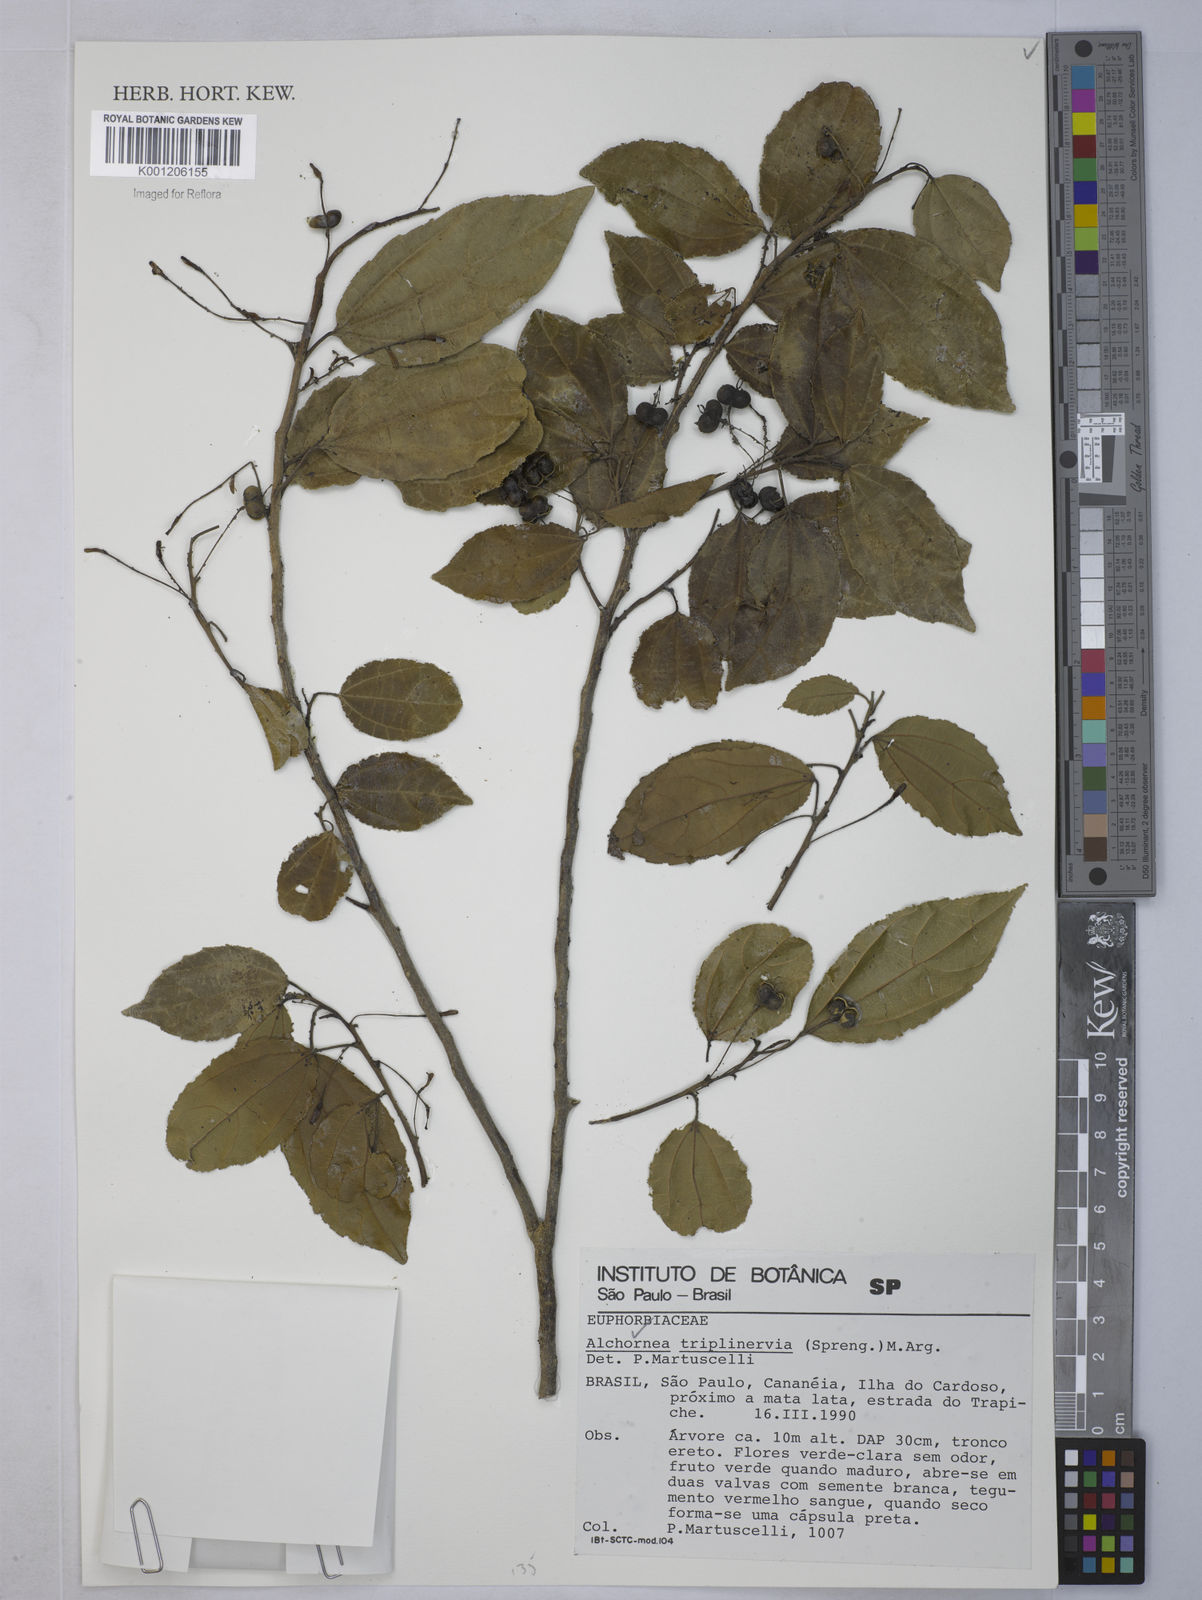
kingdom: Plantae
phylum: Tracheophyta
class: Magnoliopsida
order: Malpighiales
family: Euphorbiaceae
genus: Alchornea
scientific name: Alchornea
